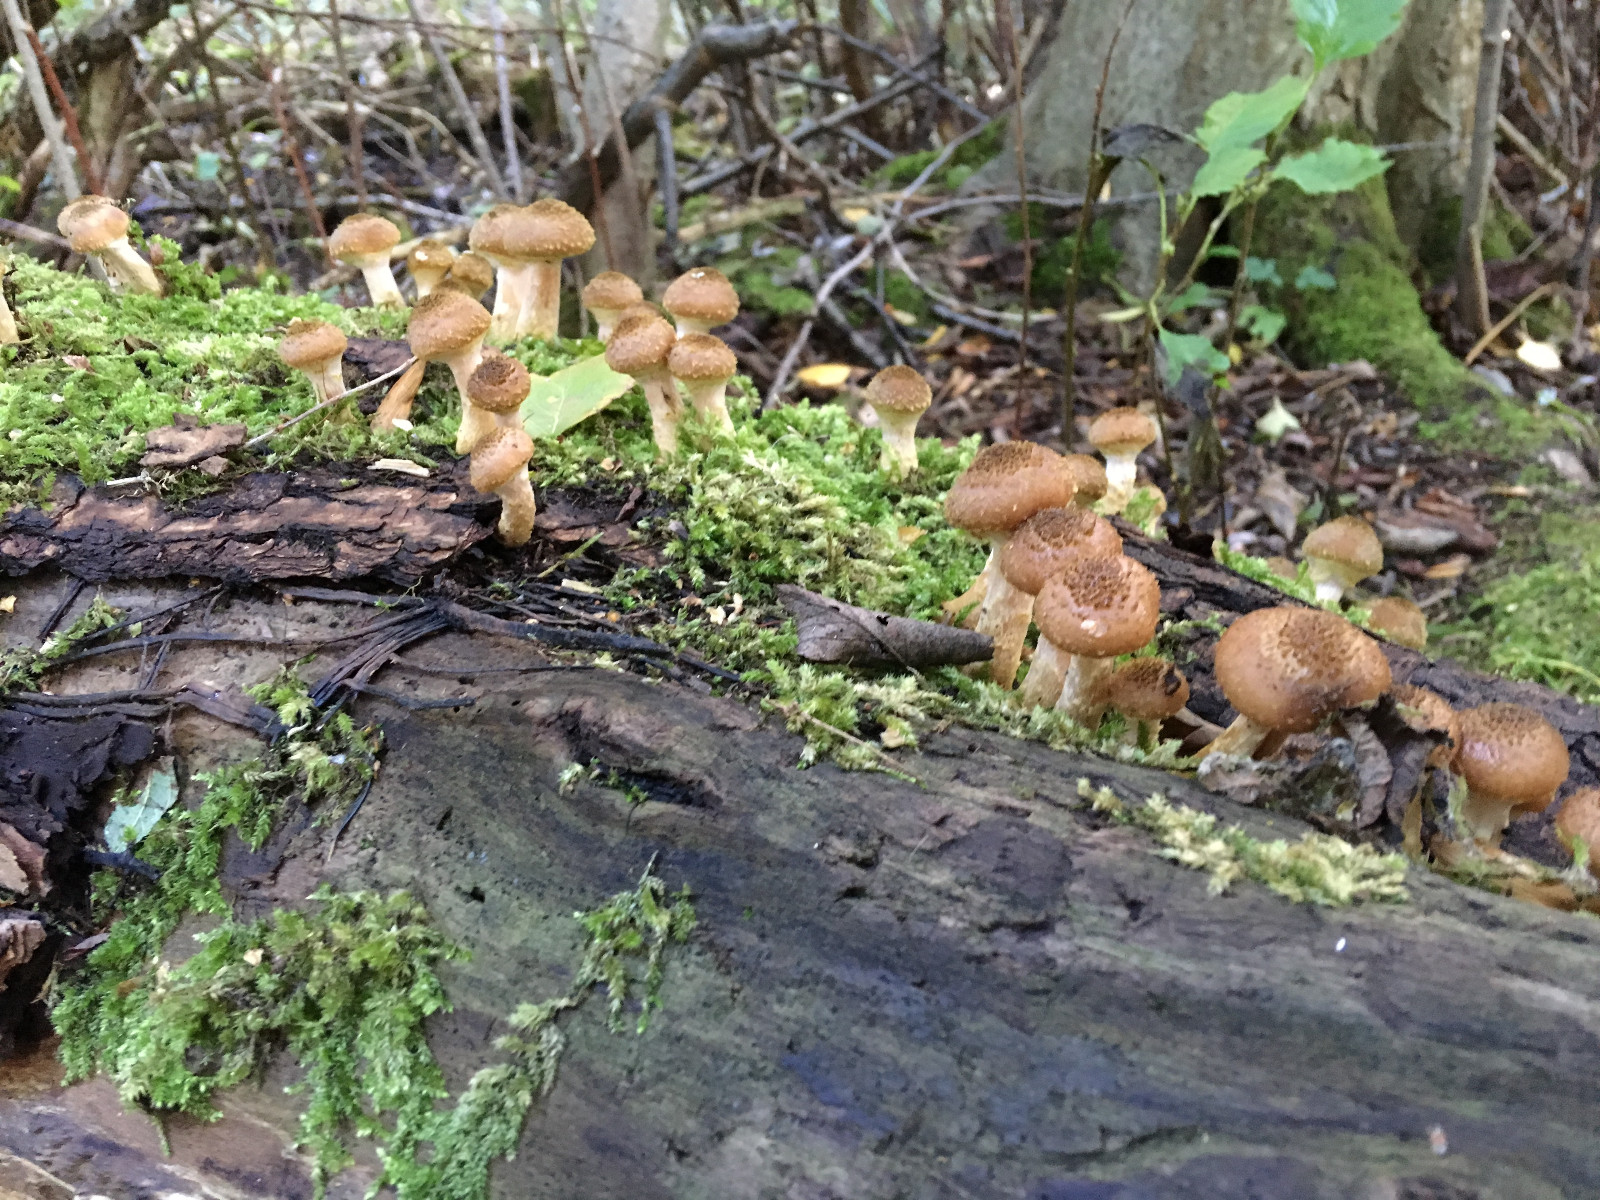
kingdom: Fungi
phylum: Basidiomycota
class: Agaricomycetes
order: Agaricales
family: Physalacriaceae
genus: Armillaria
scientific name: Armillaria lutea
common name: køllestokket honningsvamp
